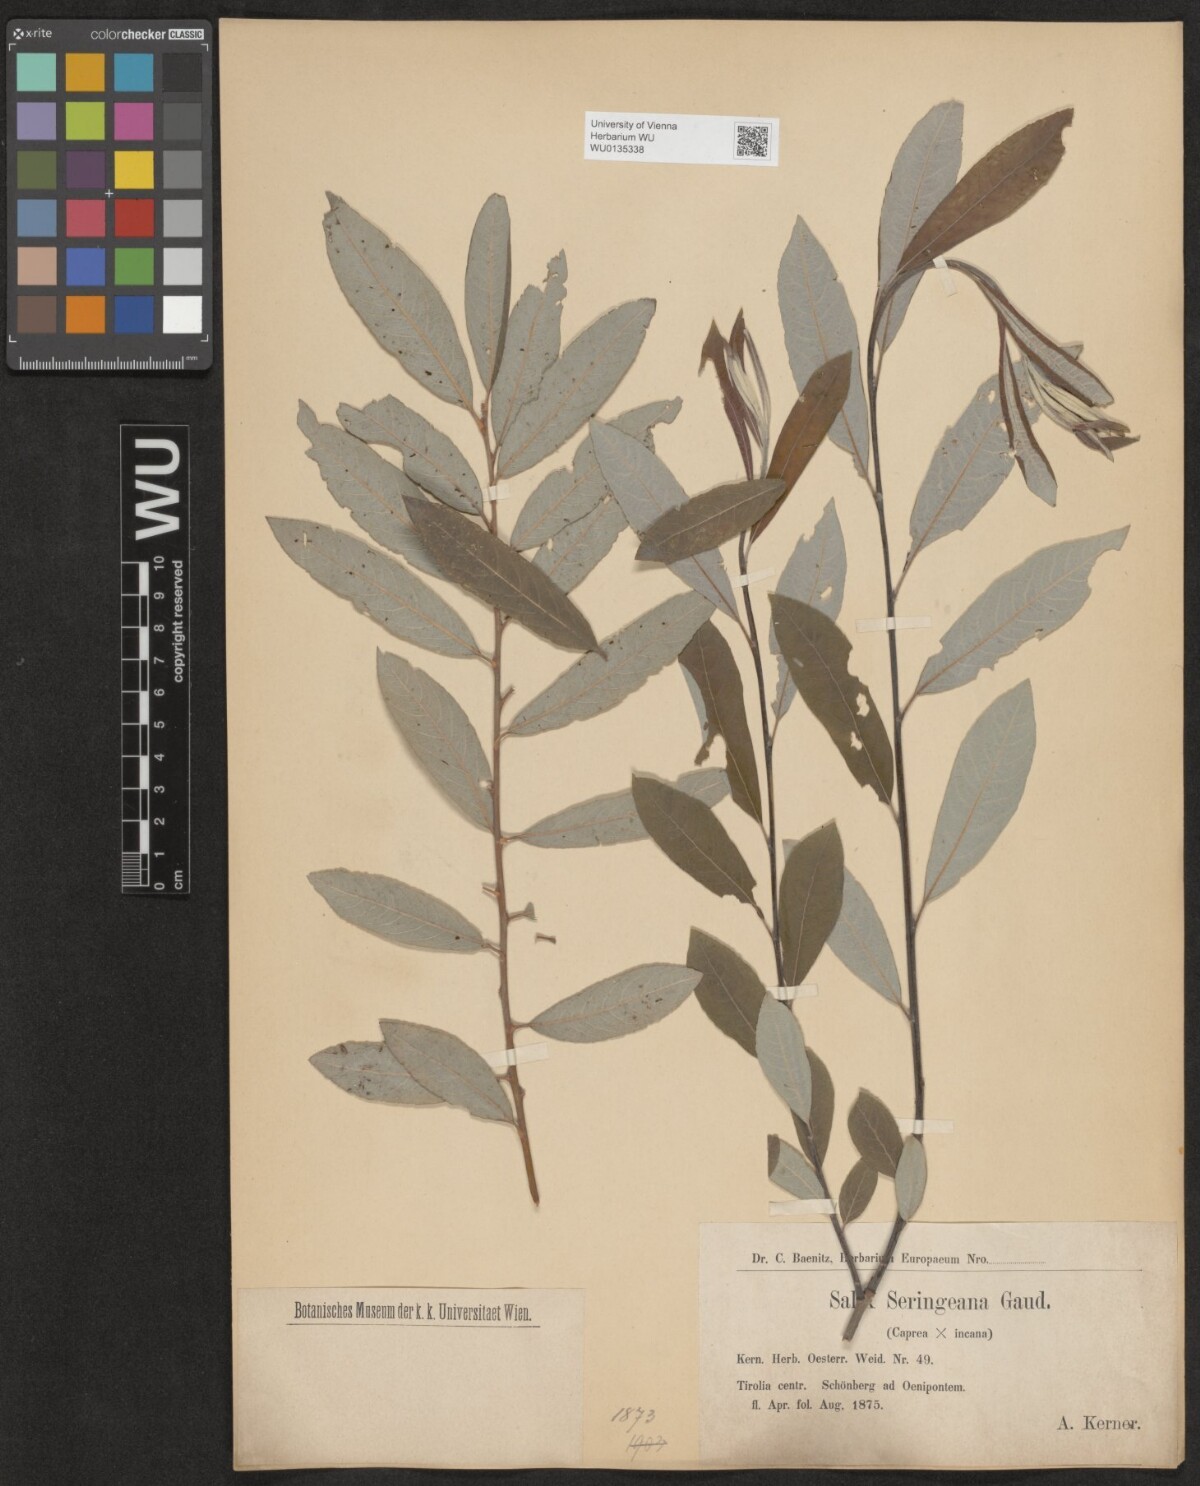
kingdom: Plantae
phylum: Tracheophyta
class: Magnoliopsida
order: Malpighiales
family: Salicaceae
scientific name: Salicaceae
